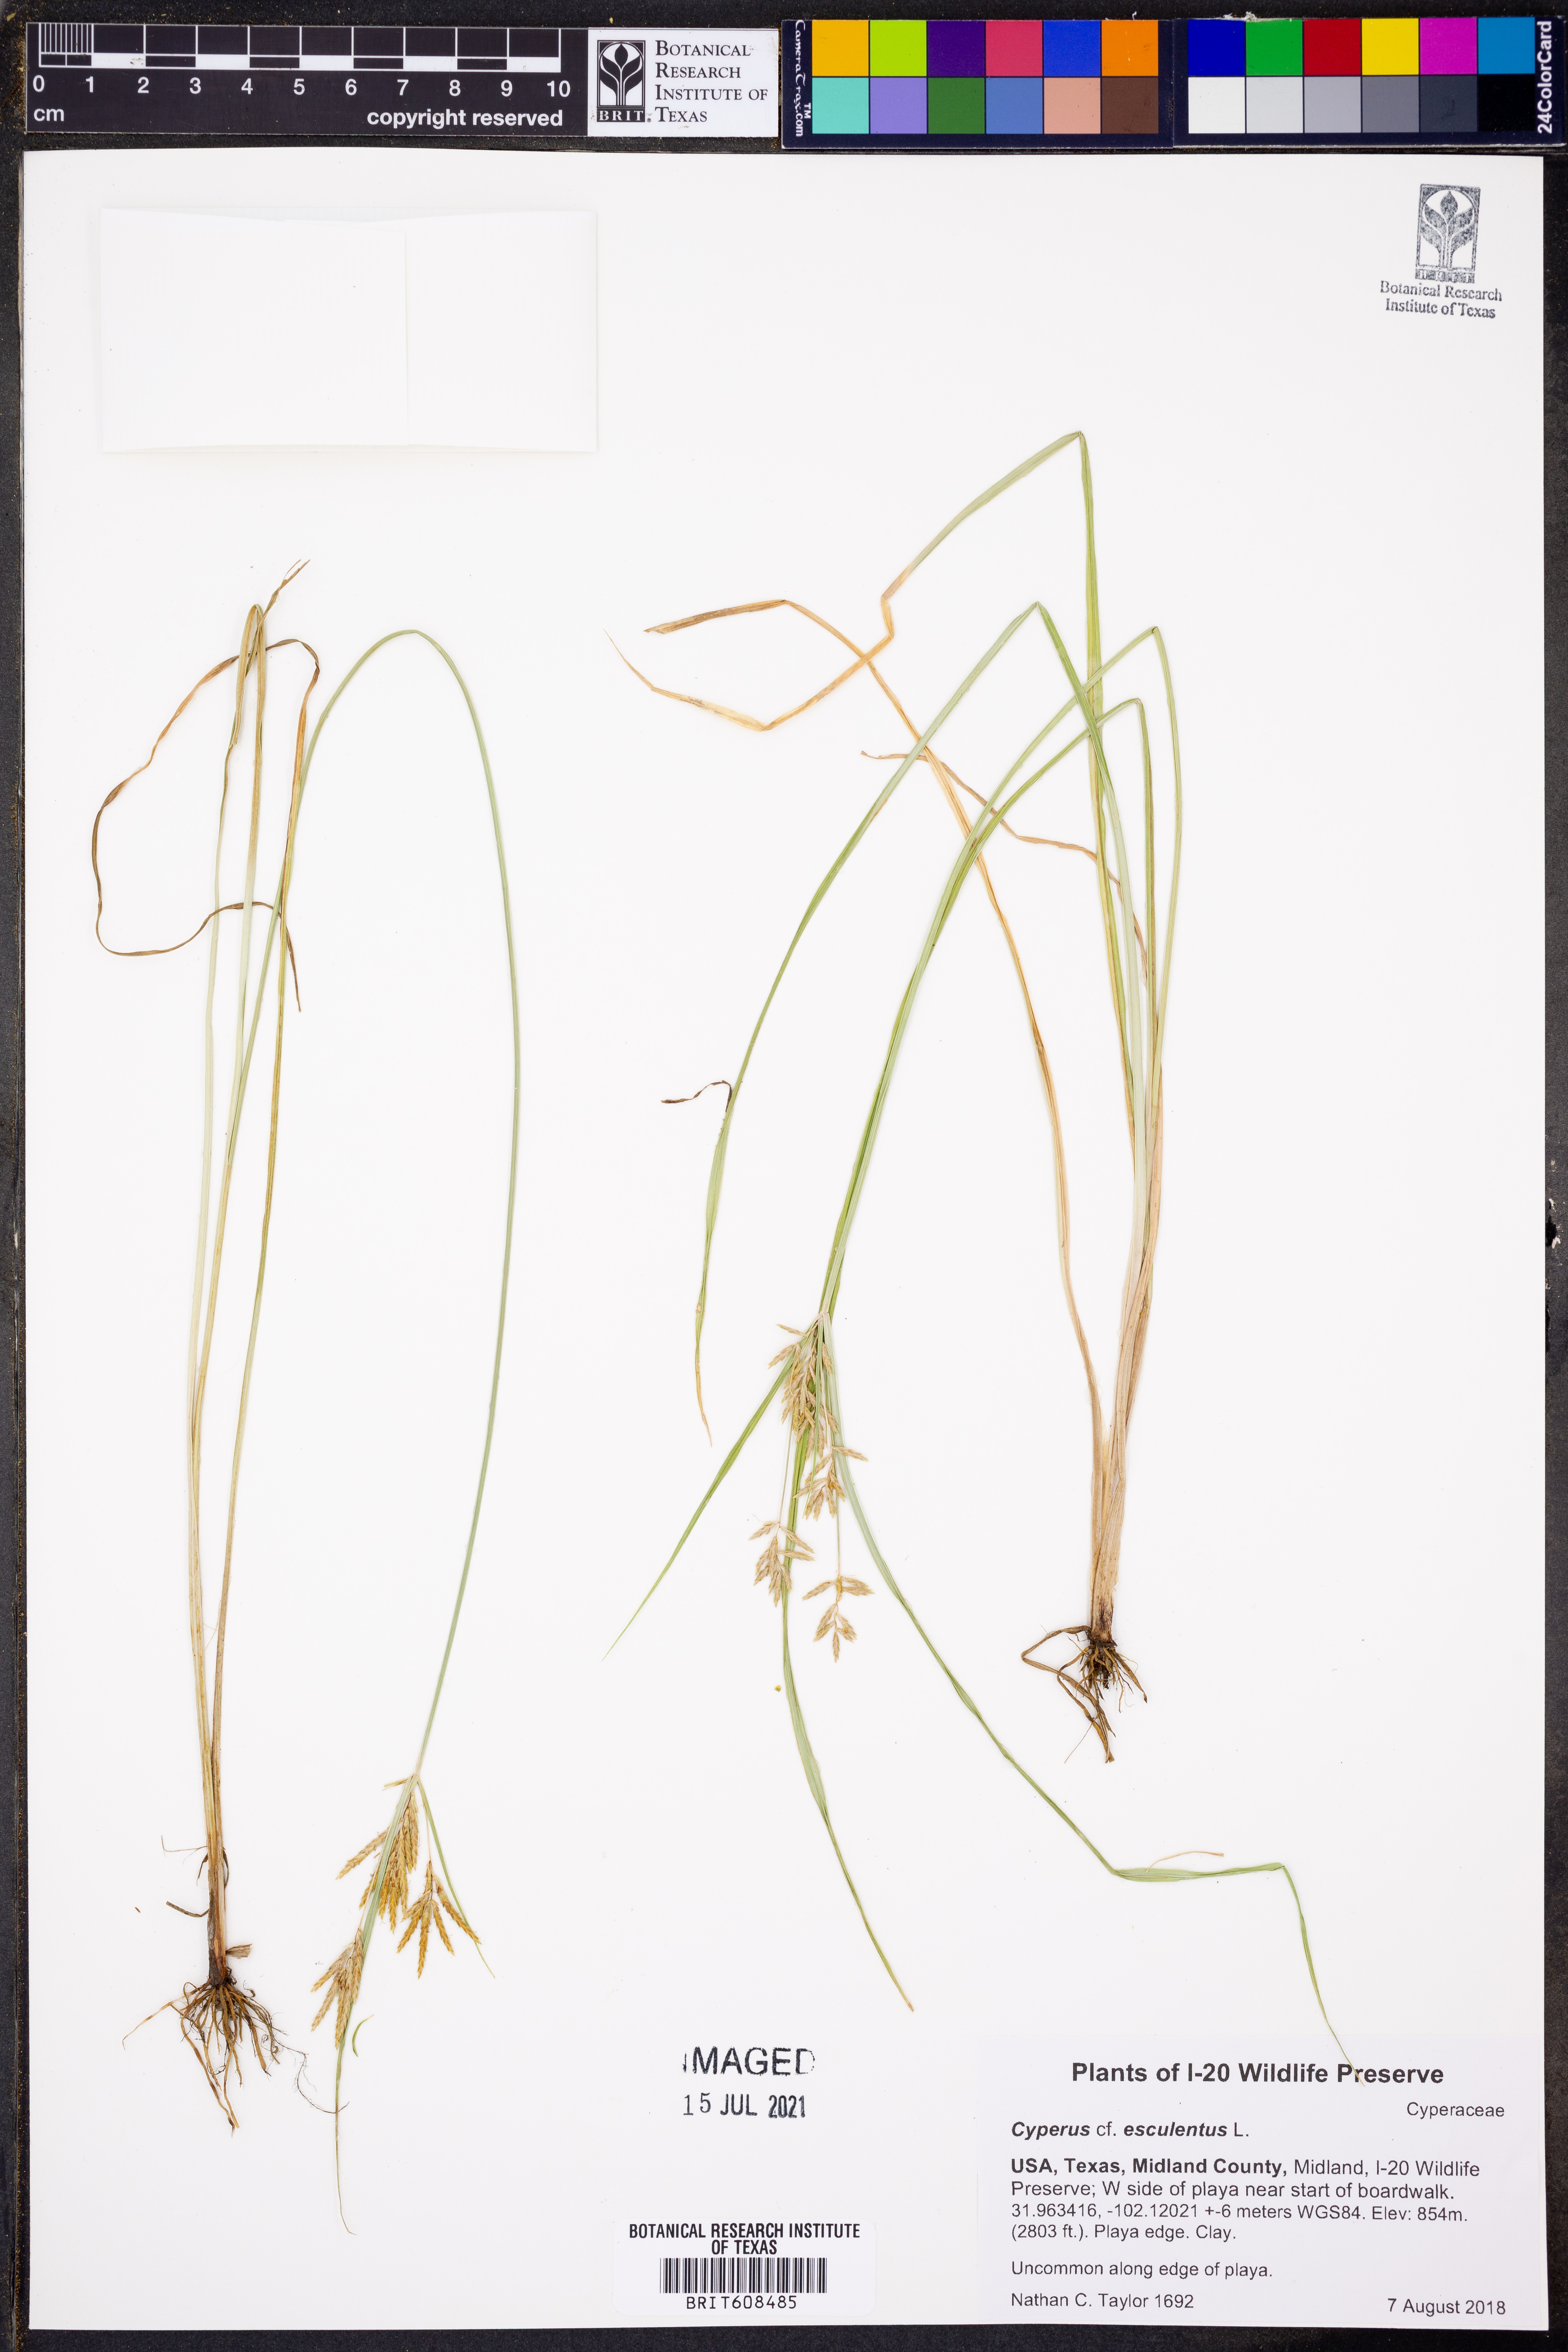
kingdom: Plantae
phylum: Tracheophyta
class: Liliopsida
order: Poales
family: Cyperaceae
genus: Cyperus
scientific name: Cyperus esculentus
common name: Yellow nutsedge
